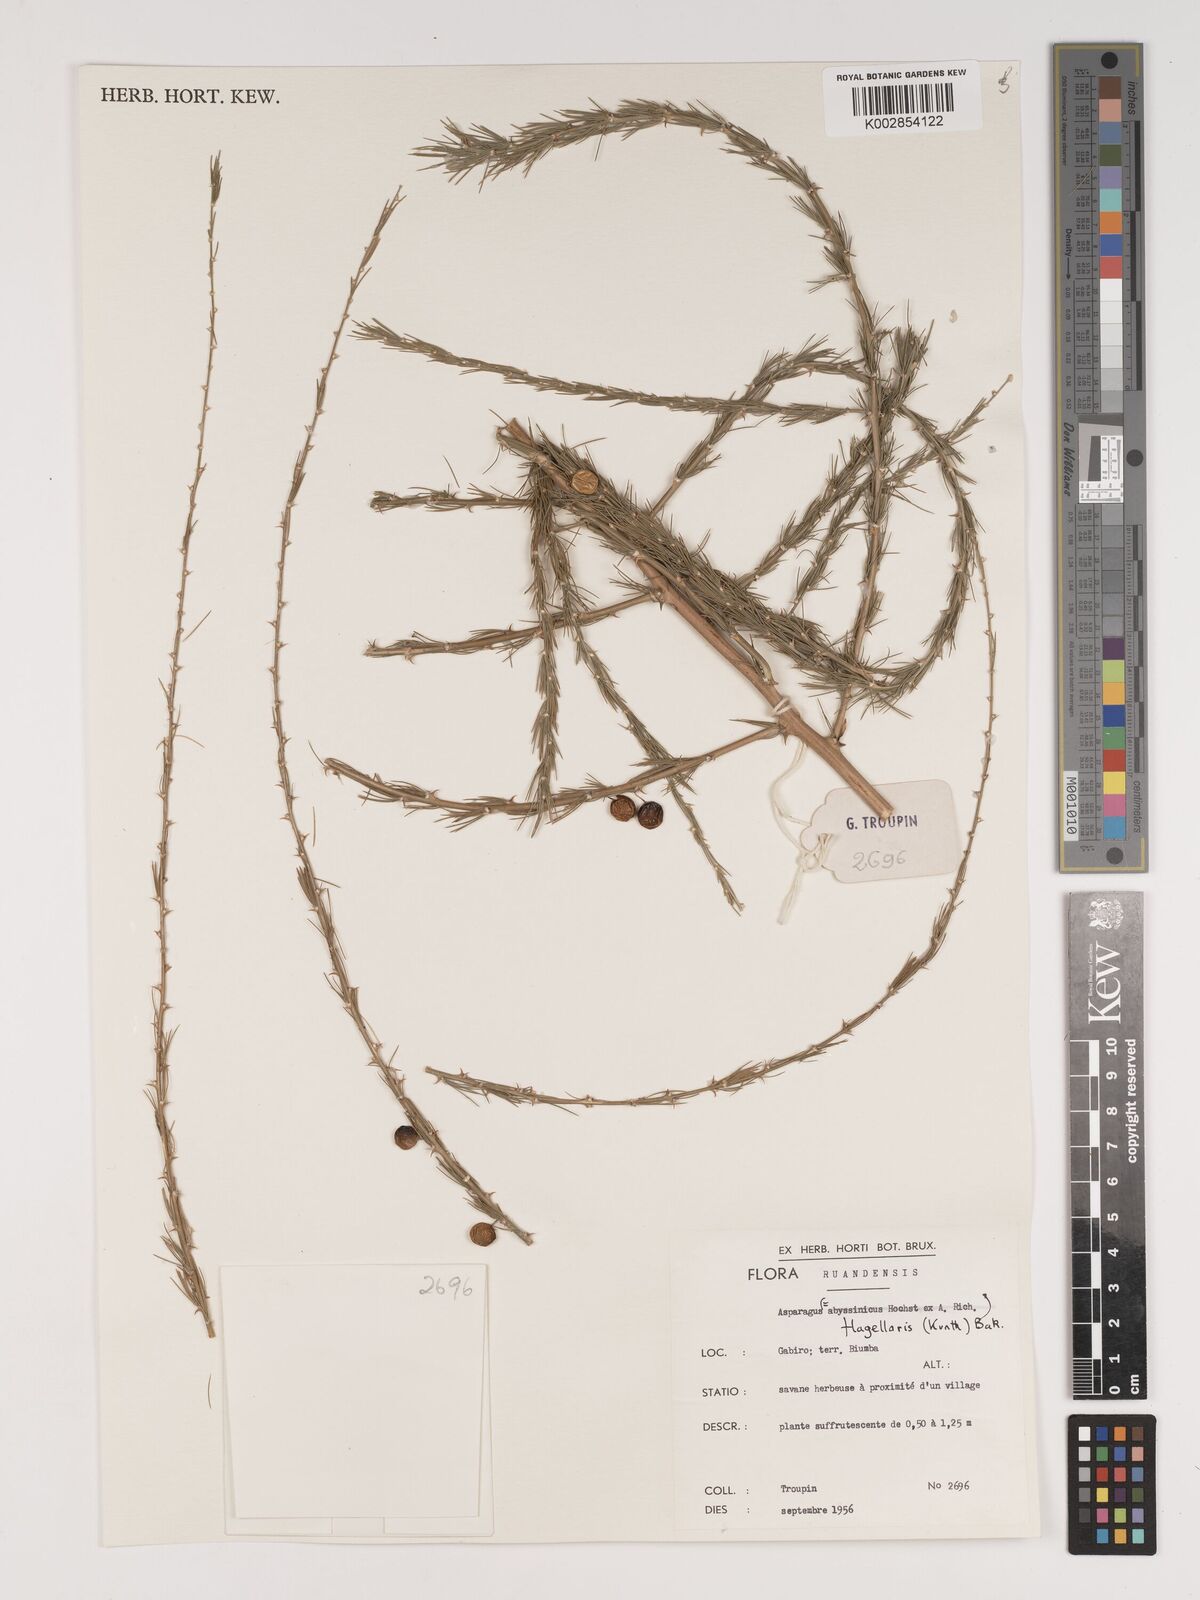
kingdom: Plantae
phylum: Tracheophyta
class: Liliopsida
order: Asparagales
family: Asparagaceae
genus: Asparagus
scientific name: Asparagus flagellaris
